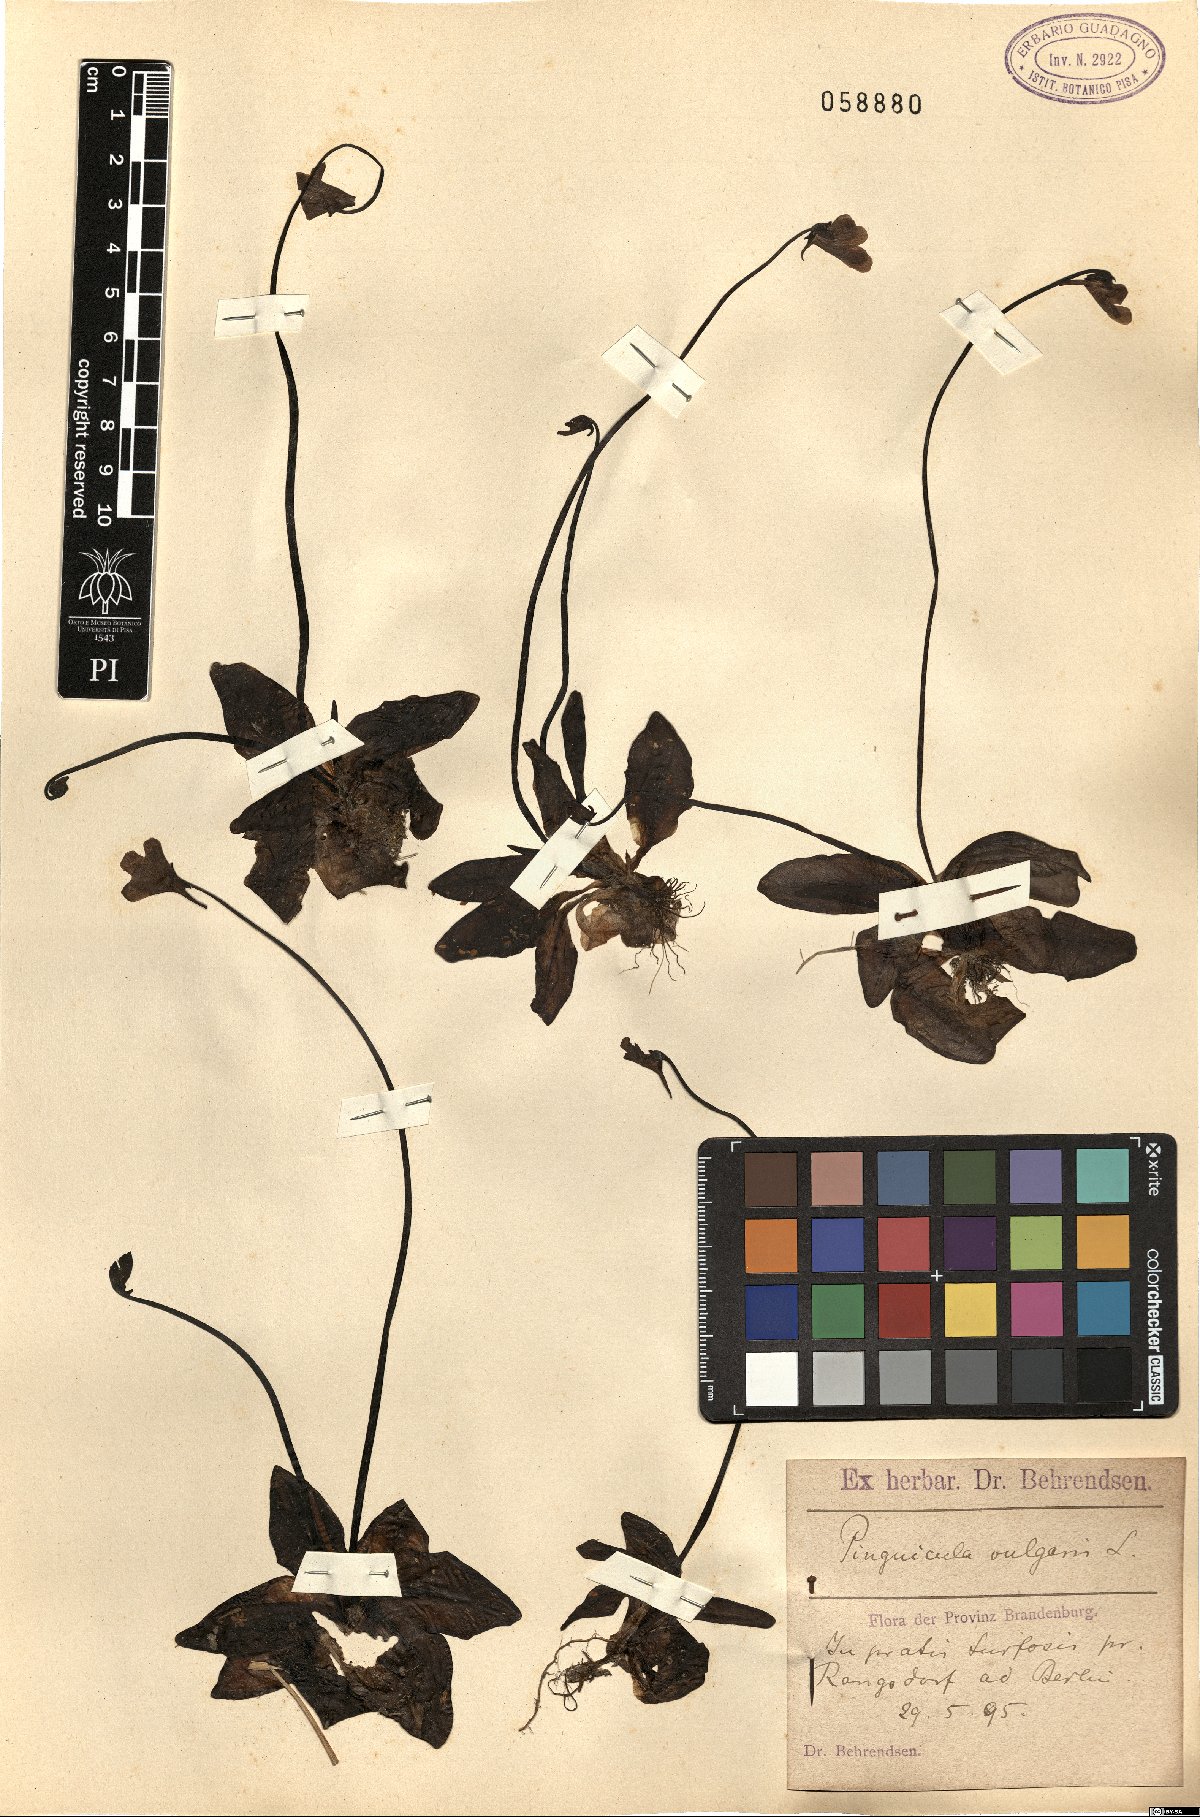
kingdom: Plantae
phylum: Tracheophyta
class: Magnoliopsida
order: Lamiales
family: Lentibulariaceae
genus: Pinguicula
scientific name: Pinguicula vulgaris
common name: Common butterwort
